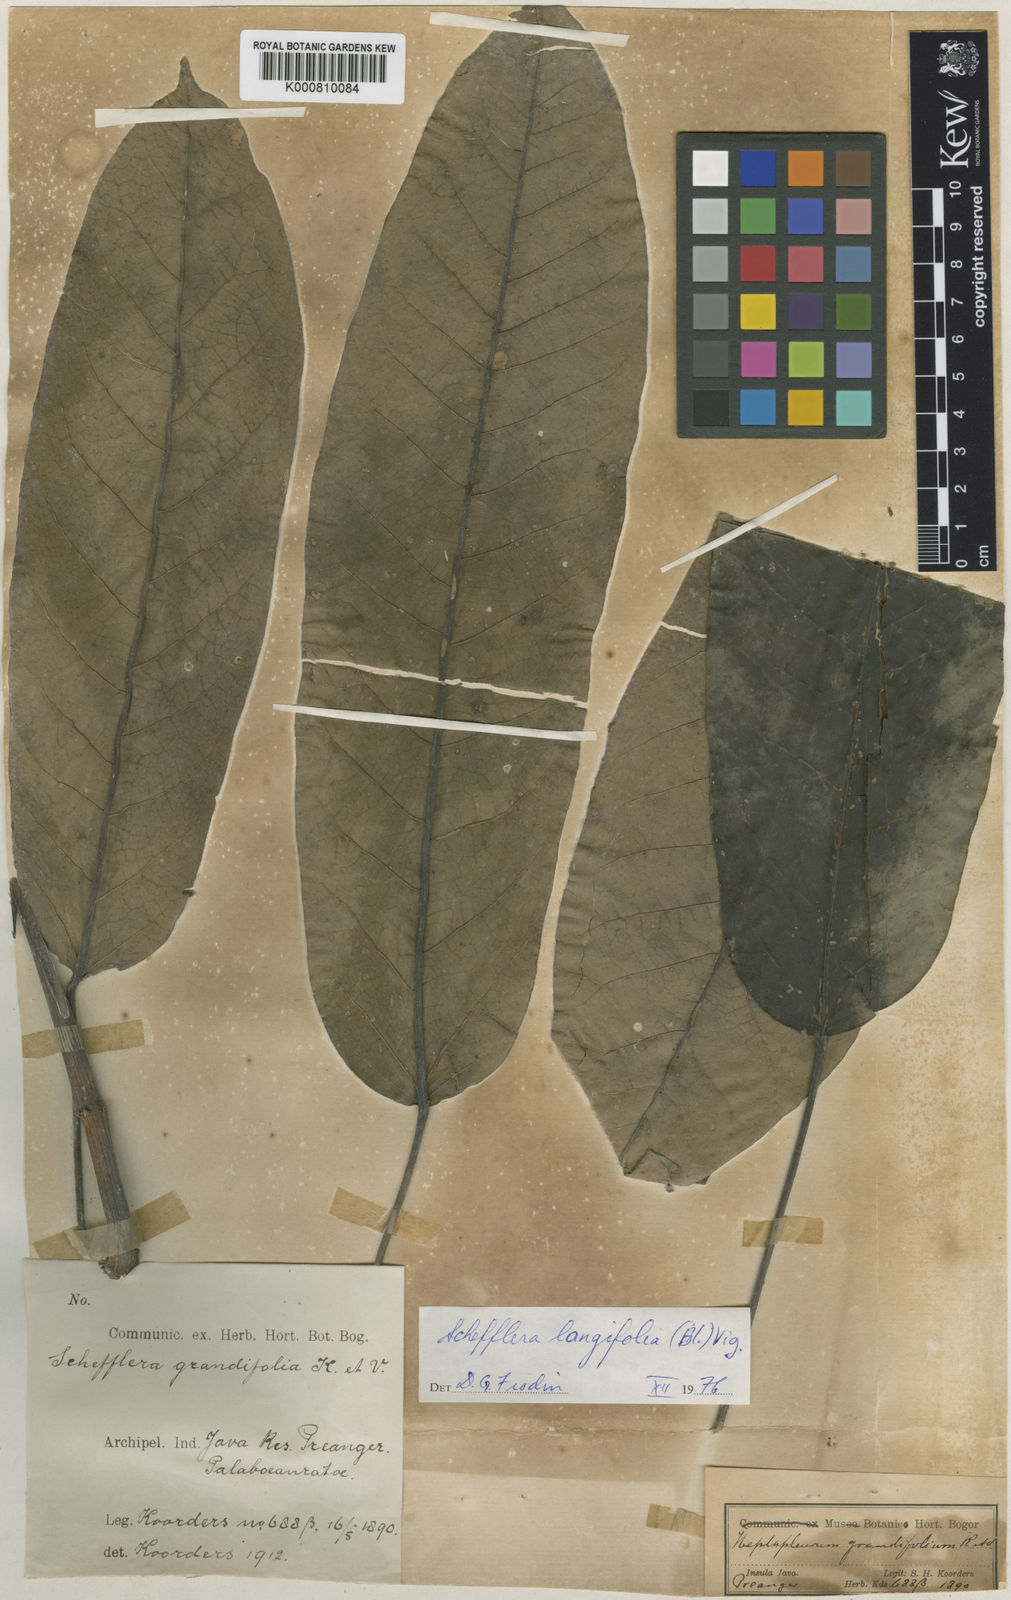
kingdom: Plantae
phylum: Tracheophyta
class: Magnoliopsida
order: Apiales
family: Araliaceae
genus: Heptapleurum
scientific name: Heptapleurum longifolium
